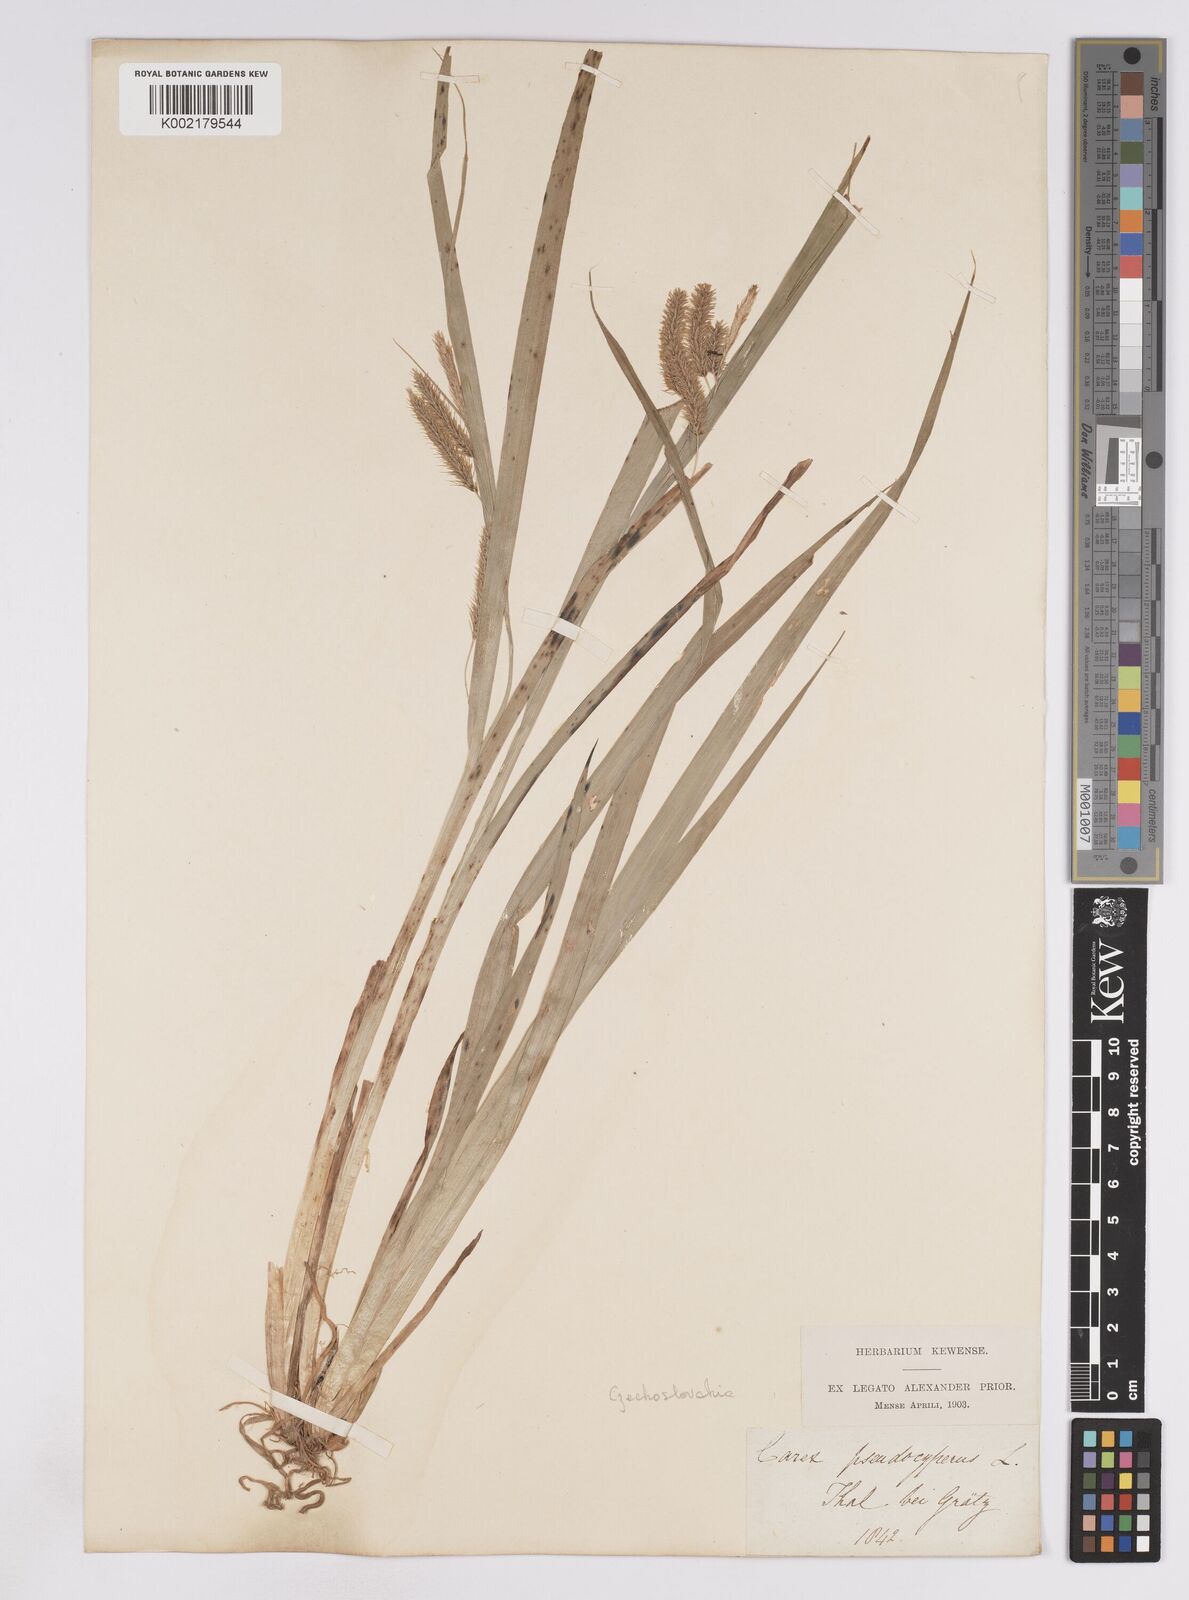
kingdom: Plantae
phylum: Tracheophyta
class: Liliopsida
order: Poales
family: Cyperaceae
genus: Carex
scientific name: Carex pseudocyperus
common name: Cyperus sedge
